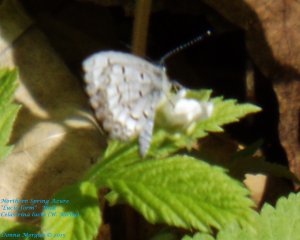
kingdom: Animalia
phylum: Arthropoda
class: Insecta
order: Lepidoptera
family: Lycaenidae
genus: Celastrina
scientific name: Celastrina lucia
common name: Northern Spring Azure
